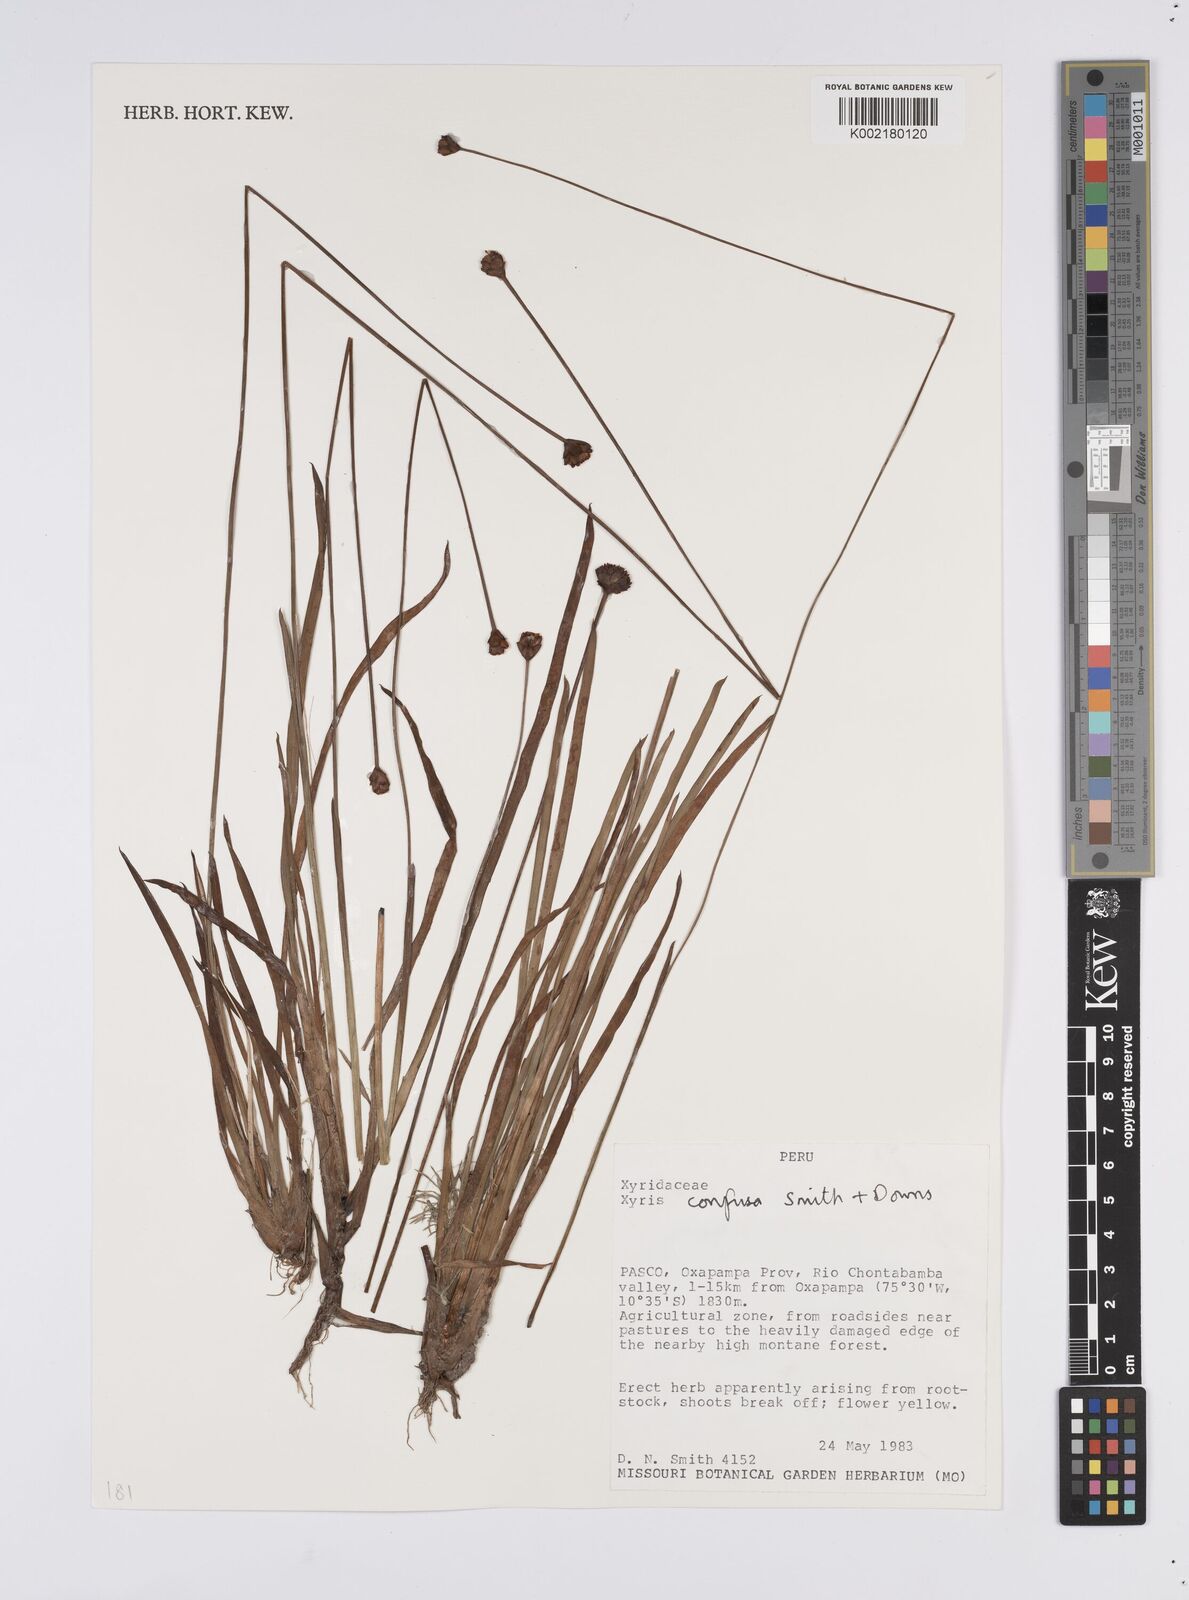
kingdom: Plantae
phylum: Tracheophyta
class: Liliopsida
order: Poales
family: Xyridaceae
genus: Xyris
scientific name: Xyris confusa
